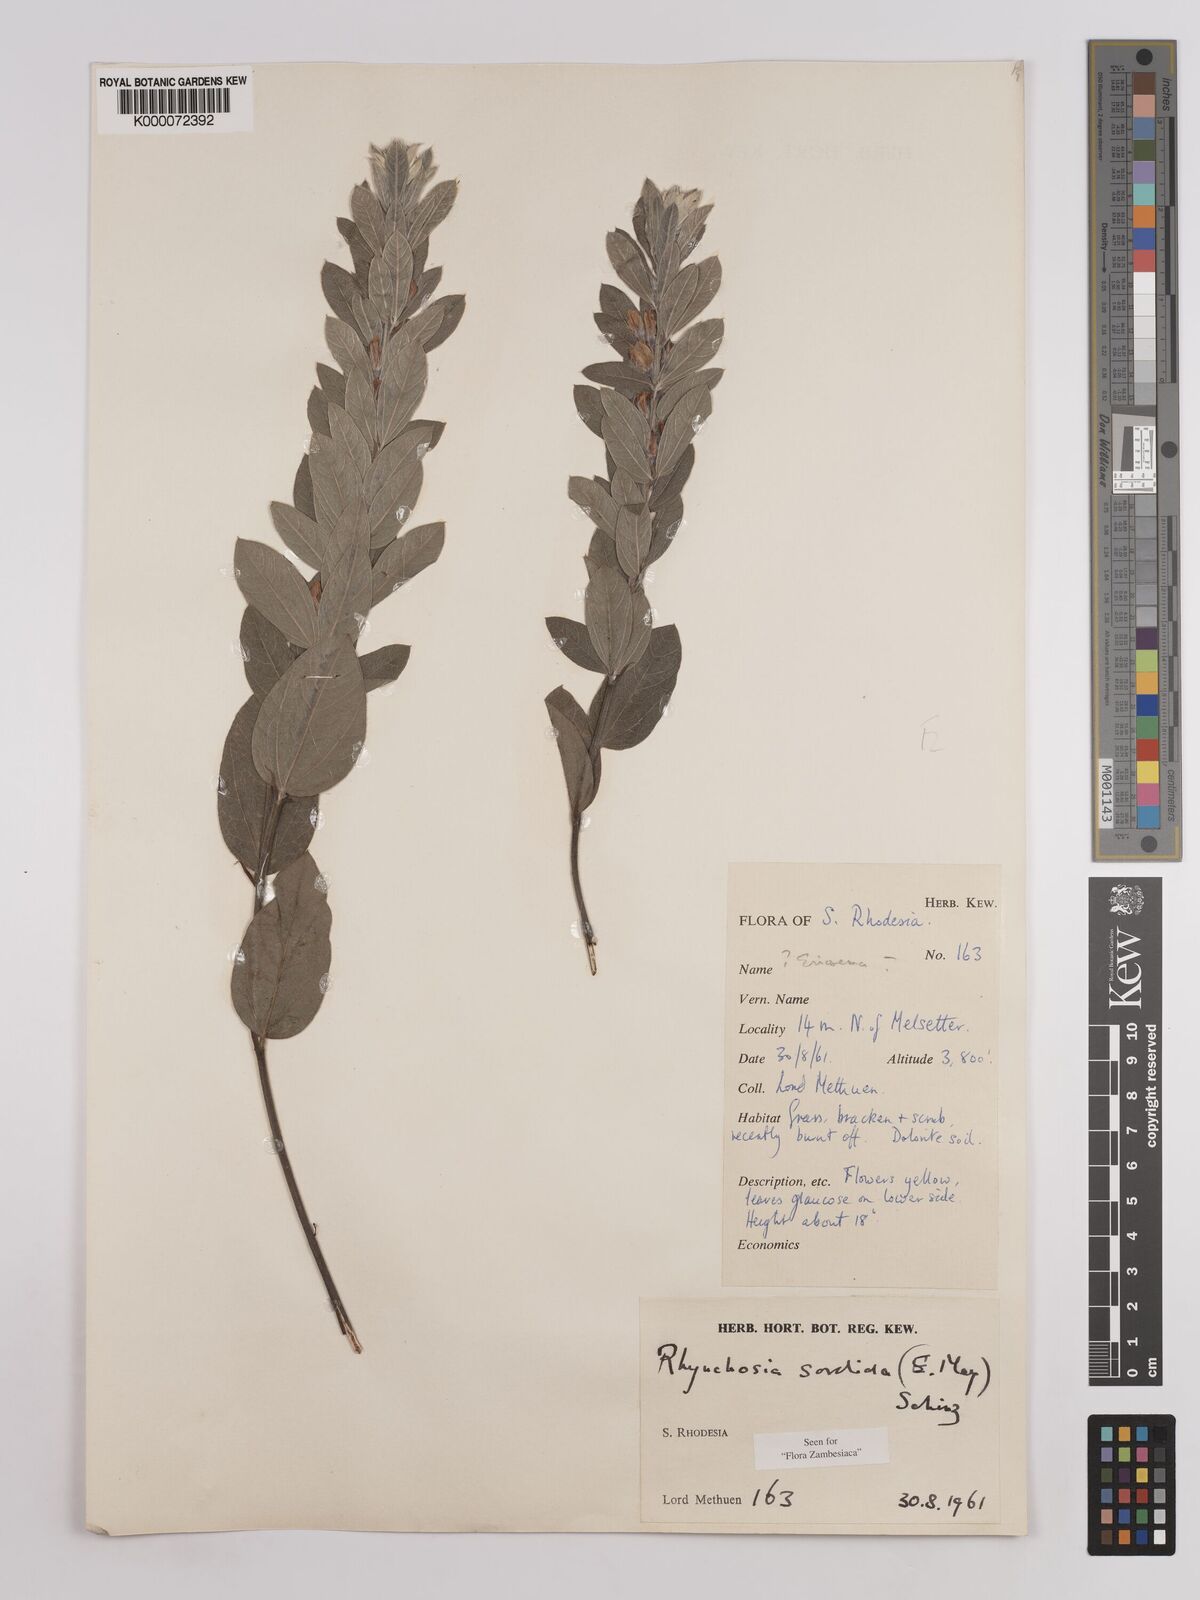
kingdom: Plantae
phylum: Tracheophyta
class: Magnoliopsida
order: Fabales
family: Fabaceae
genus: Rhynchosia
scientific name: Rhynchosia sordida
